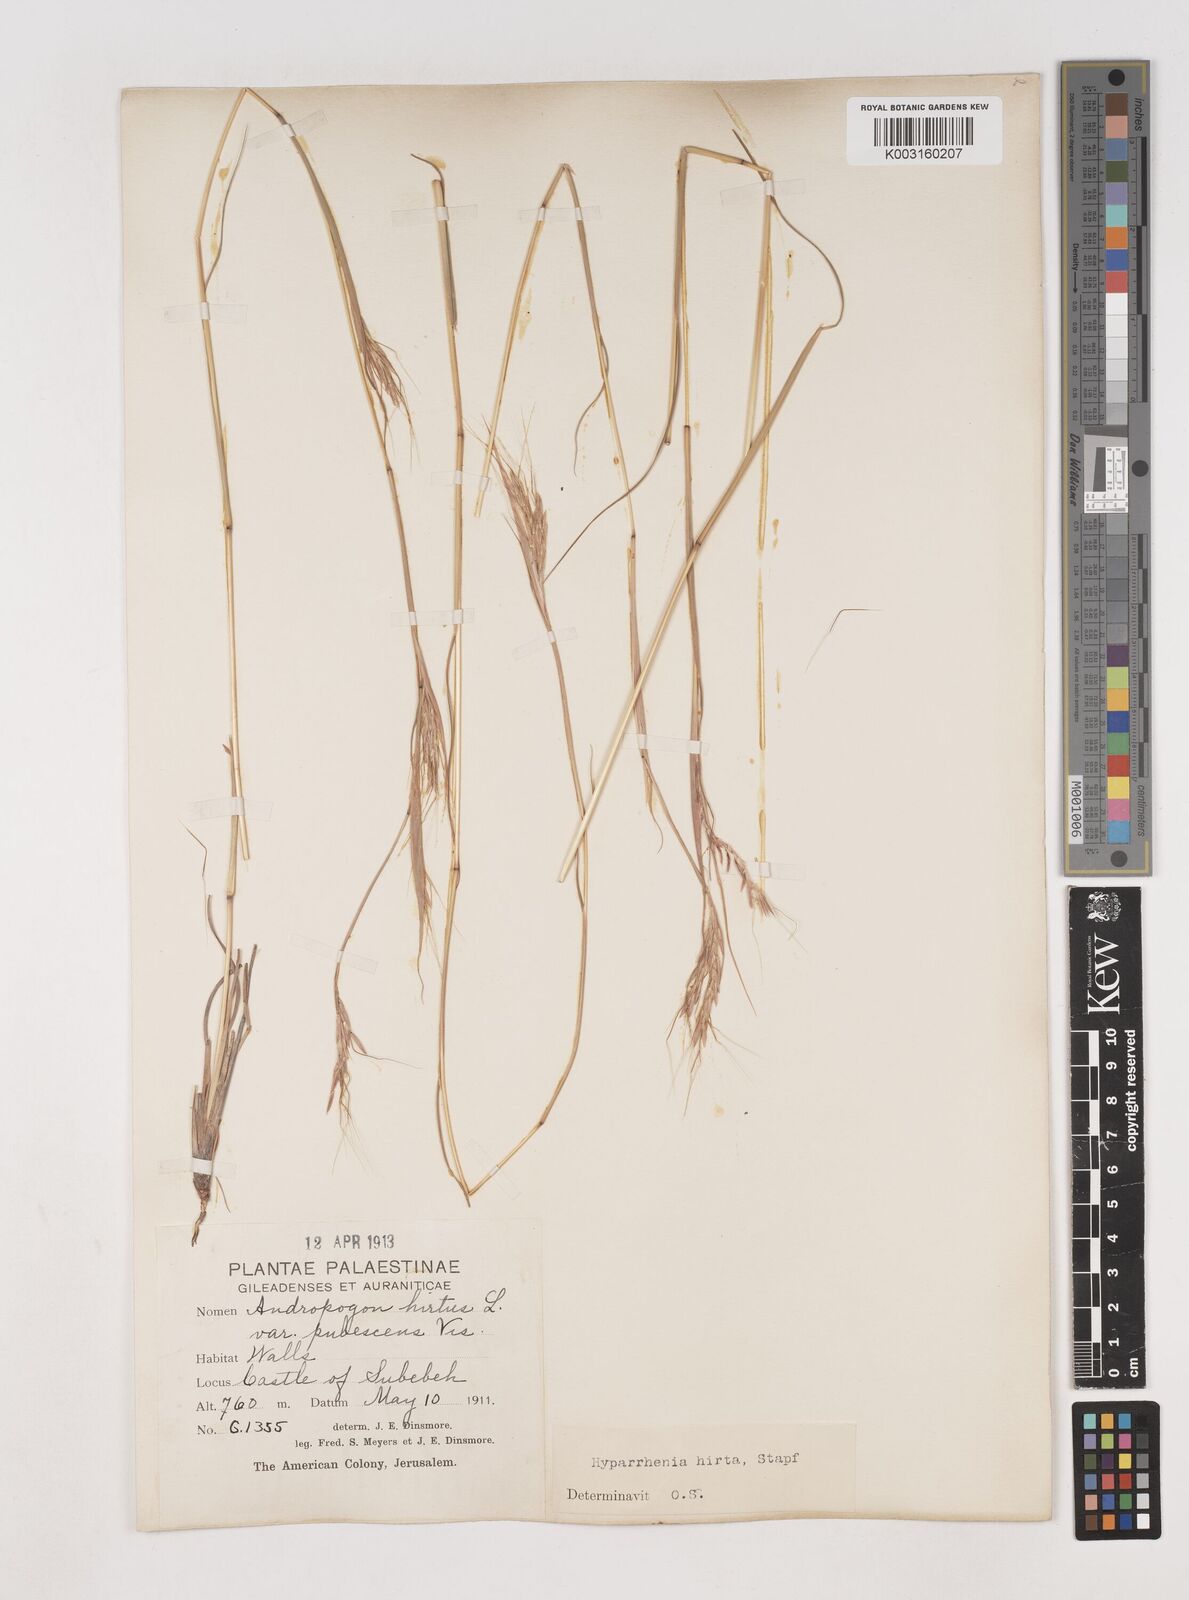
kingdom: Plantae
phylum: Tracheophyta
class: Liliopsida
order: Poales
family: Poaceae
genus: Hyparrhenia
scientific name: Hyparrhenia hirta
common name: Thatching grass
